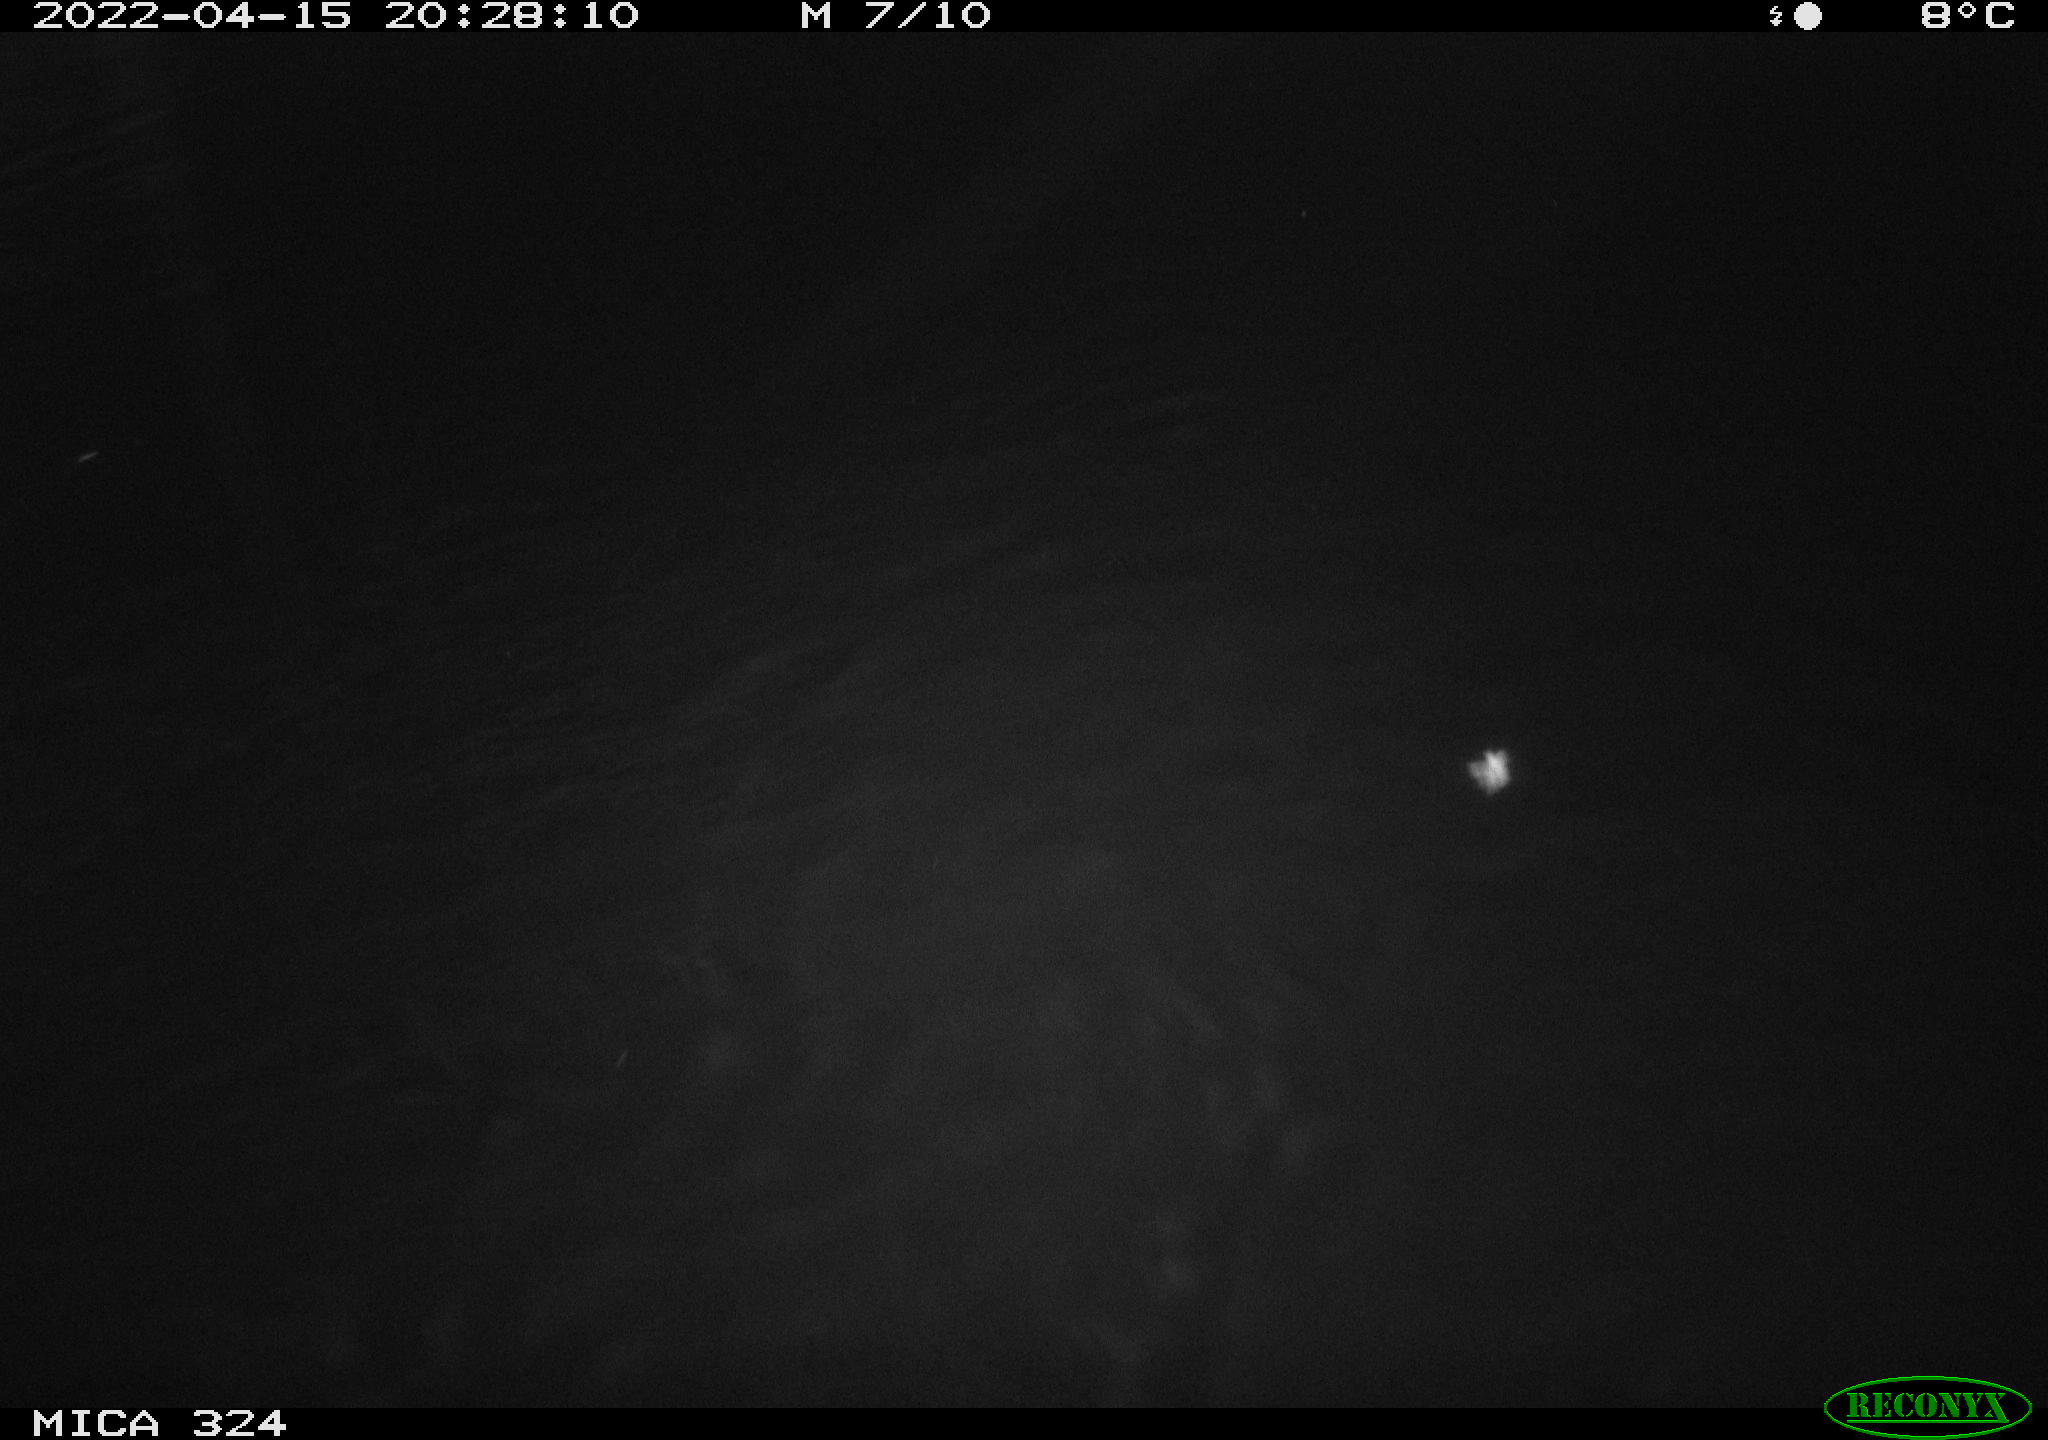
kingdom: Animalia
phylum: Chordata
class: Mammalia
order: Rodentia
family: Cricetidae
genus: Ondatra
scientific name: Ondatra zibethicus
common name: Muskrat
